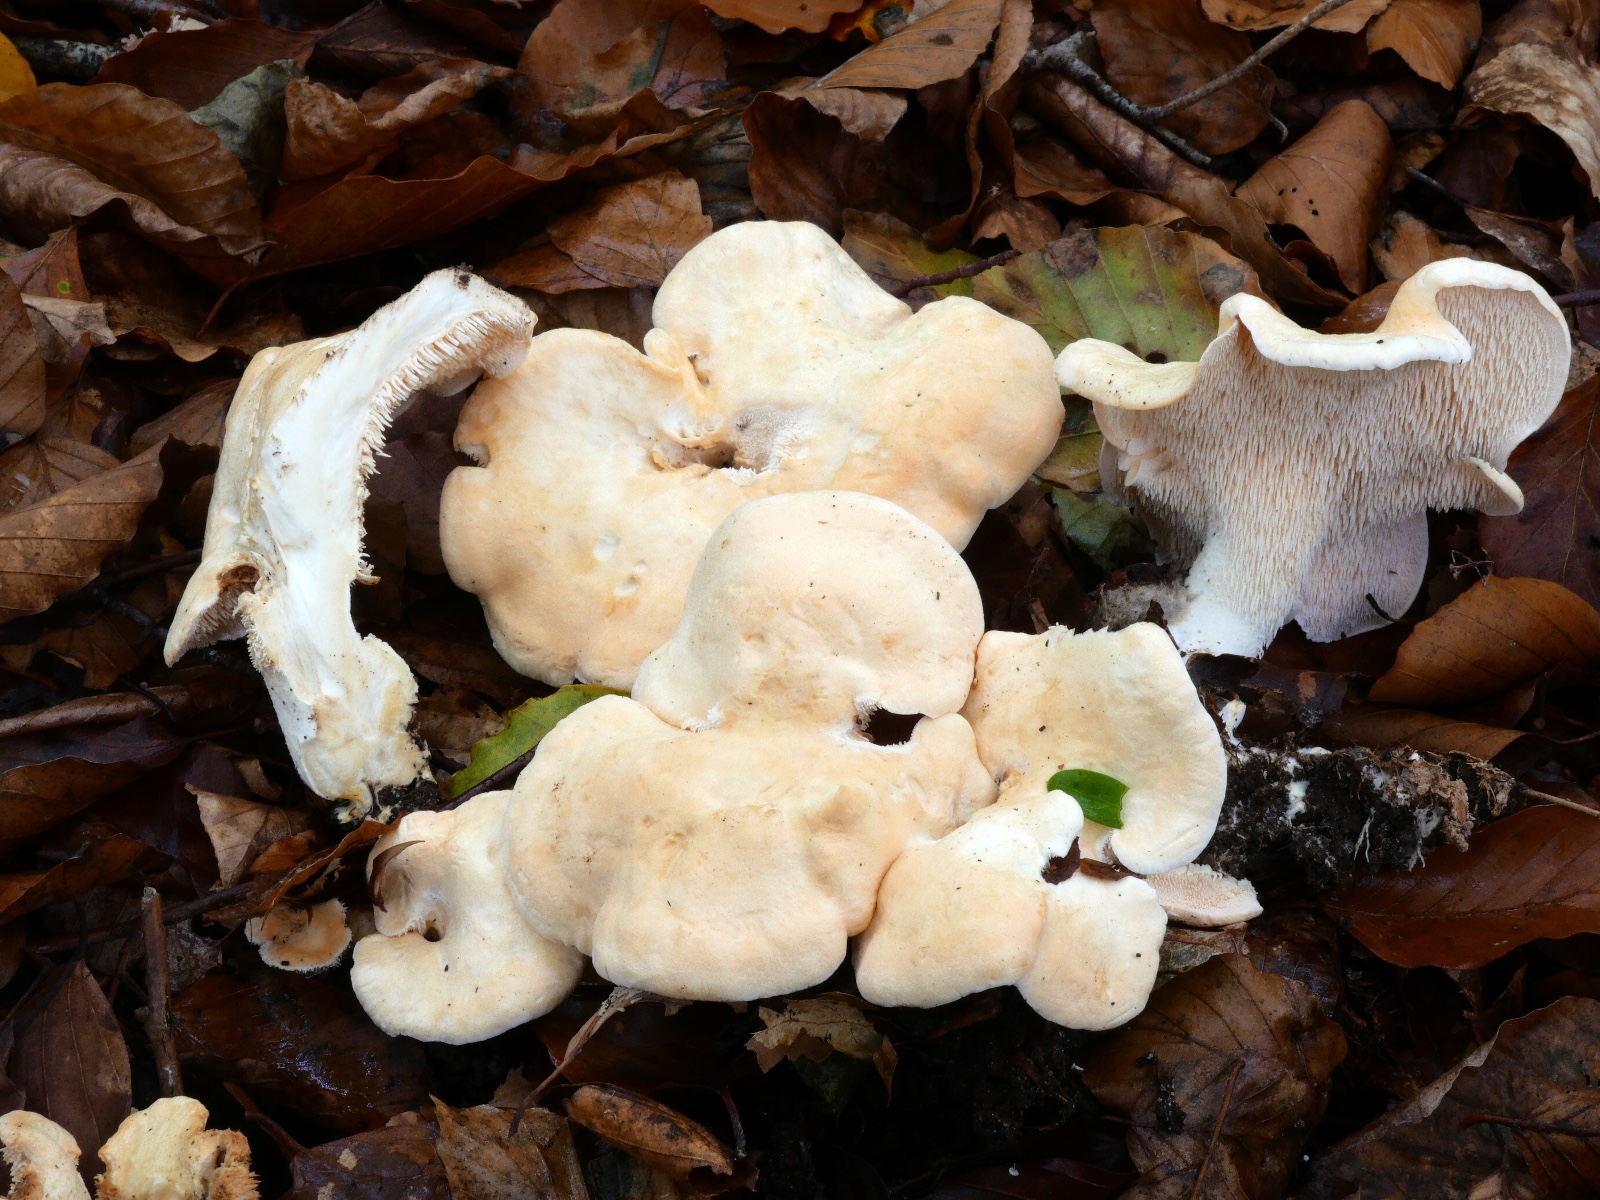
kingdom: Fungi
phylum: Basidiomycota
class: Agaricomycetes
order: Cantharellales
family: Hydnaceae
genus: Hydnum
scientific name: Hydnum repandum
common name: almindelig pigsvamp
